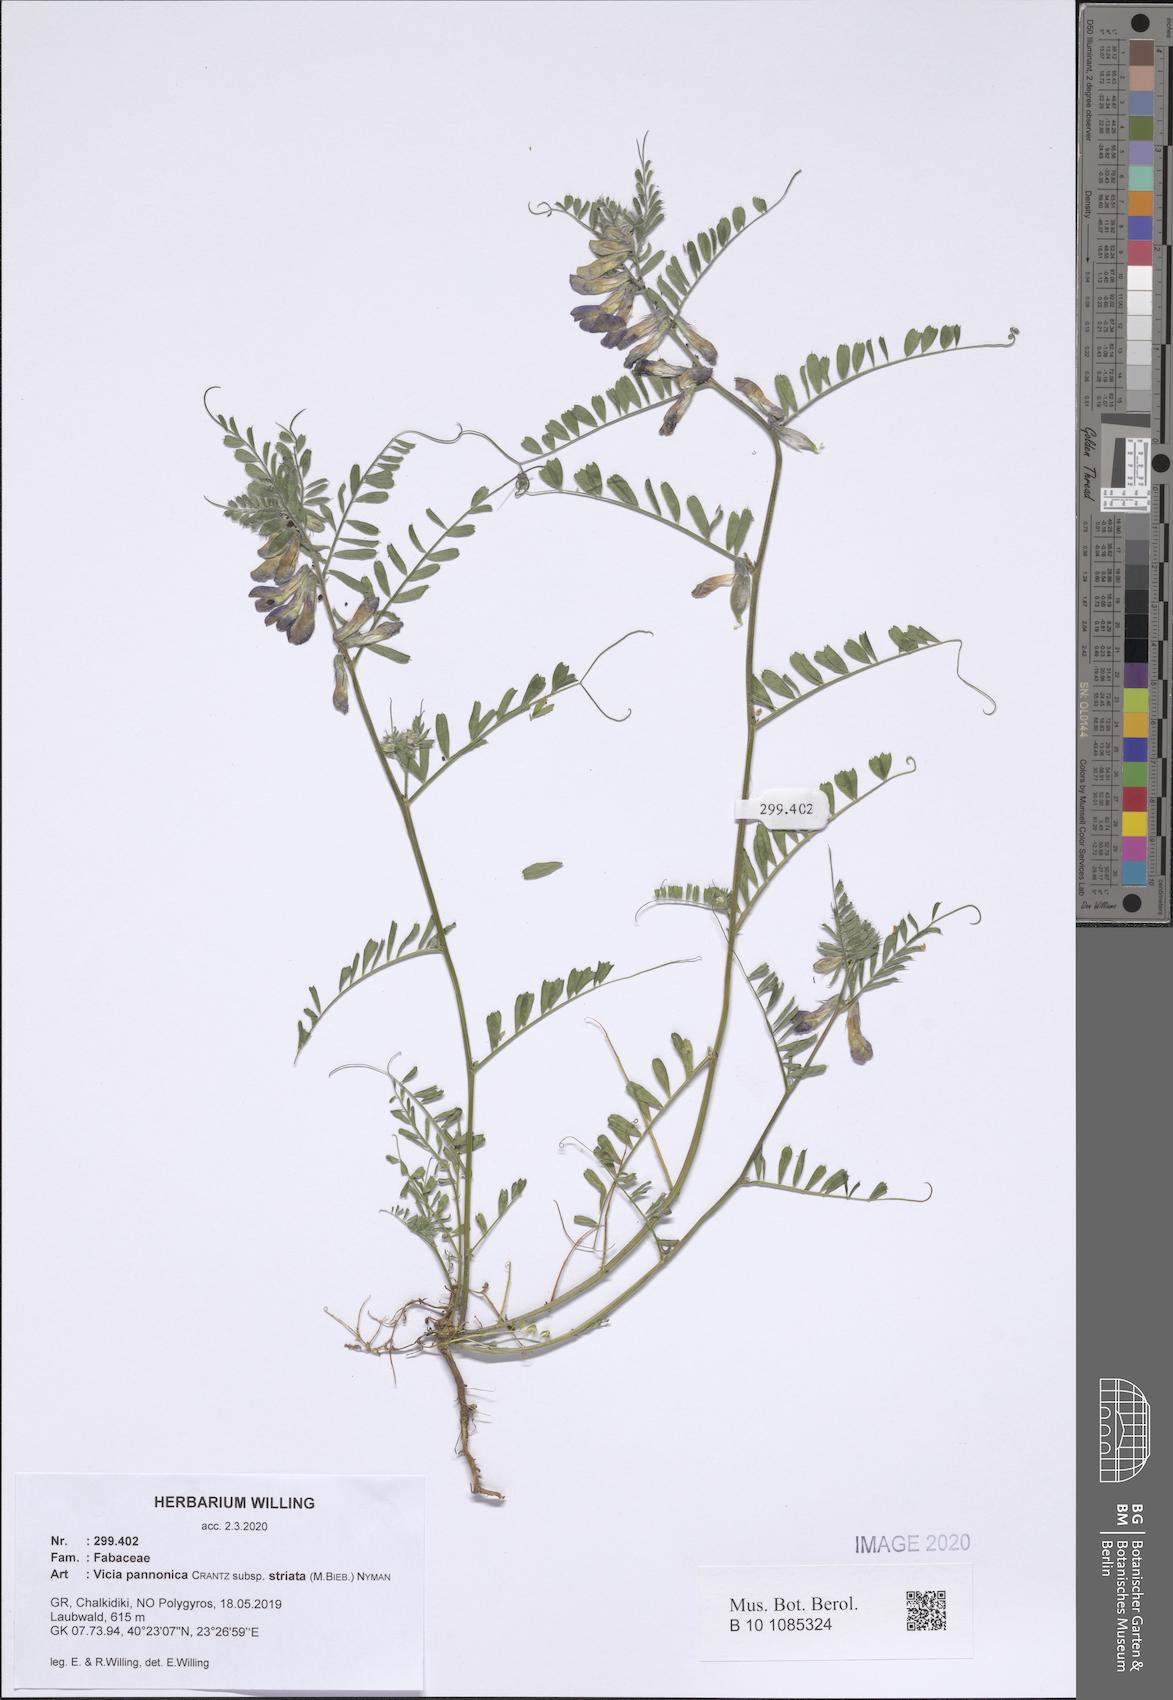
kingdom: Plantae
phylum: Tracheophyta
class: Magnoliopsida
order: Fabales
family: Fabaceae
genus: Vicia
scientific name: Vicia pannonica
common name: Hungarian vetch
